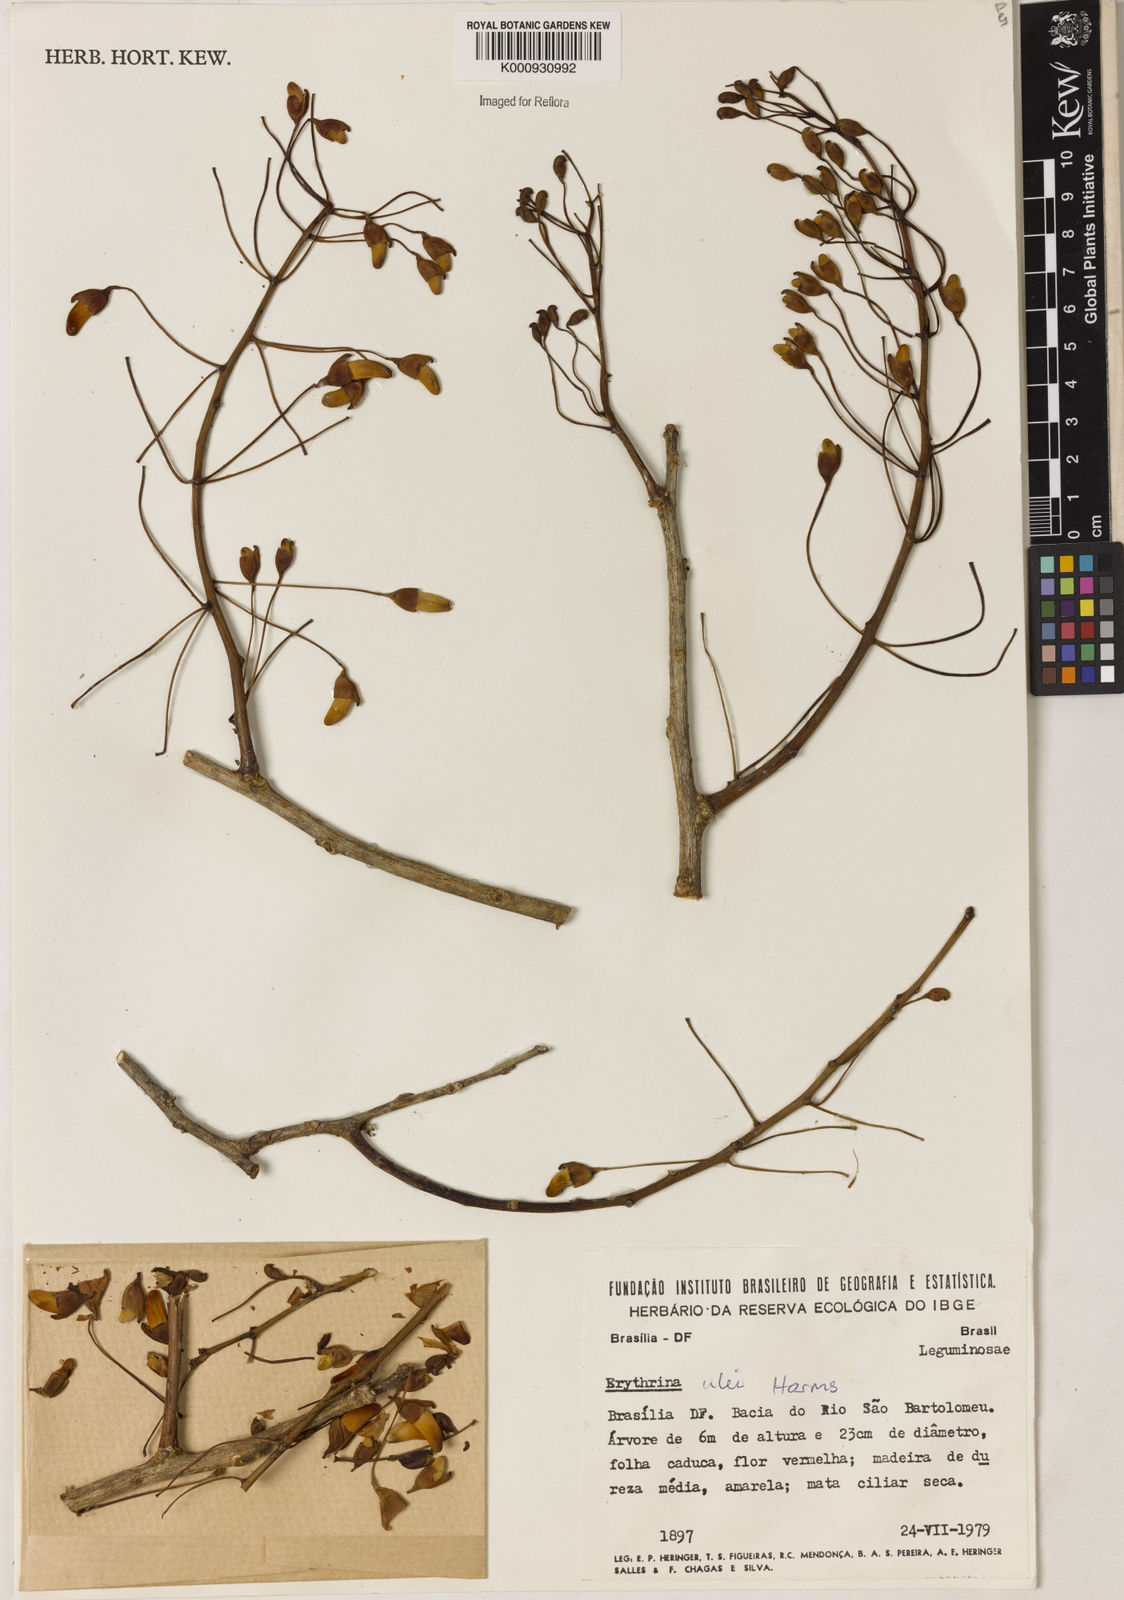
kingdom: Plantae
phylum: Tracheophyta
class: Magnoliopsida
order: Fabales
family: Fabaceae
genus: Erythrina
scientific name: Erythrina ulei
